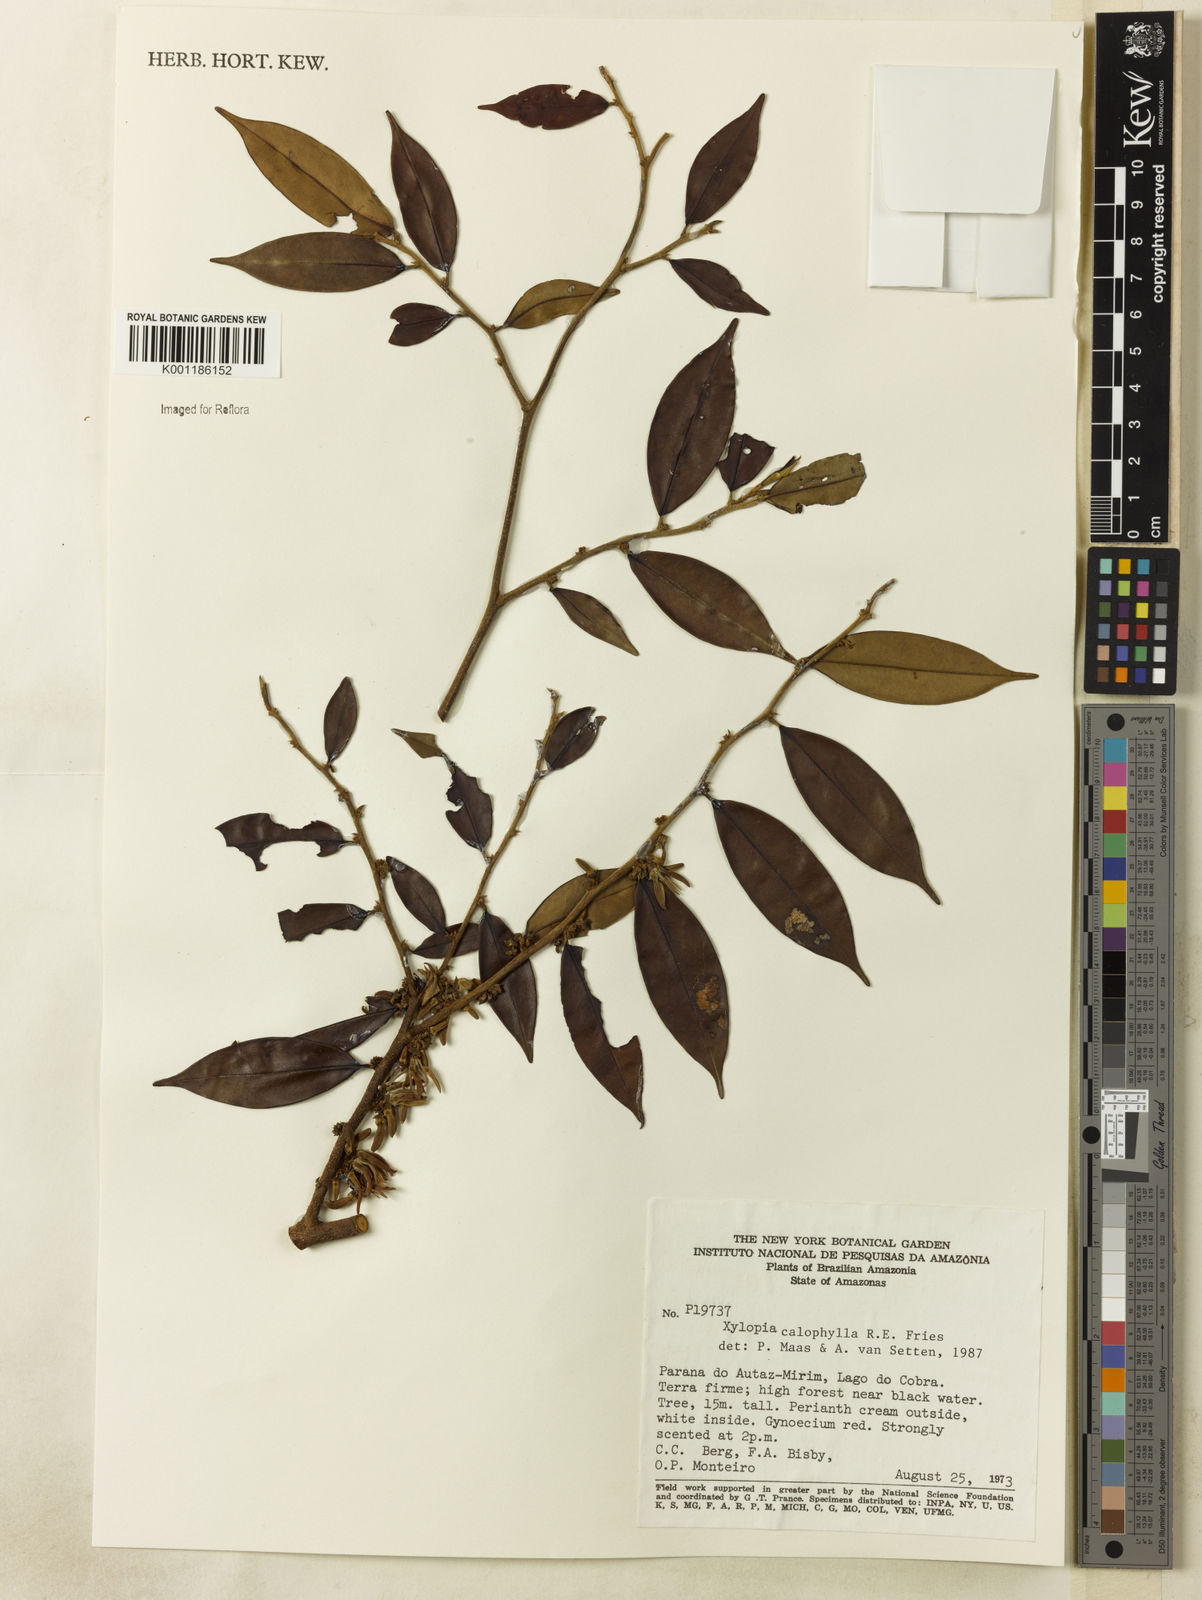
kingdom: Plantae
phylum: Tracheophyta
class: Magnoliopsida
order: Magnoliales
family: Annonaceae
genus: Xylopia
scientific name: Xylopia calophylla
